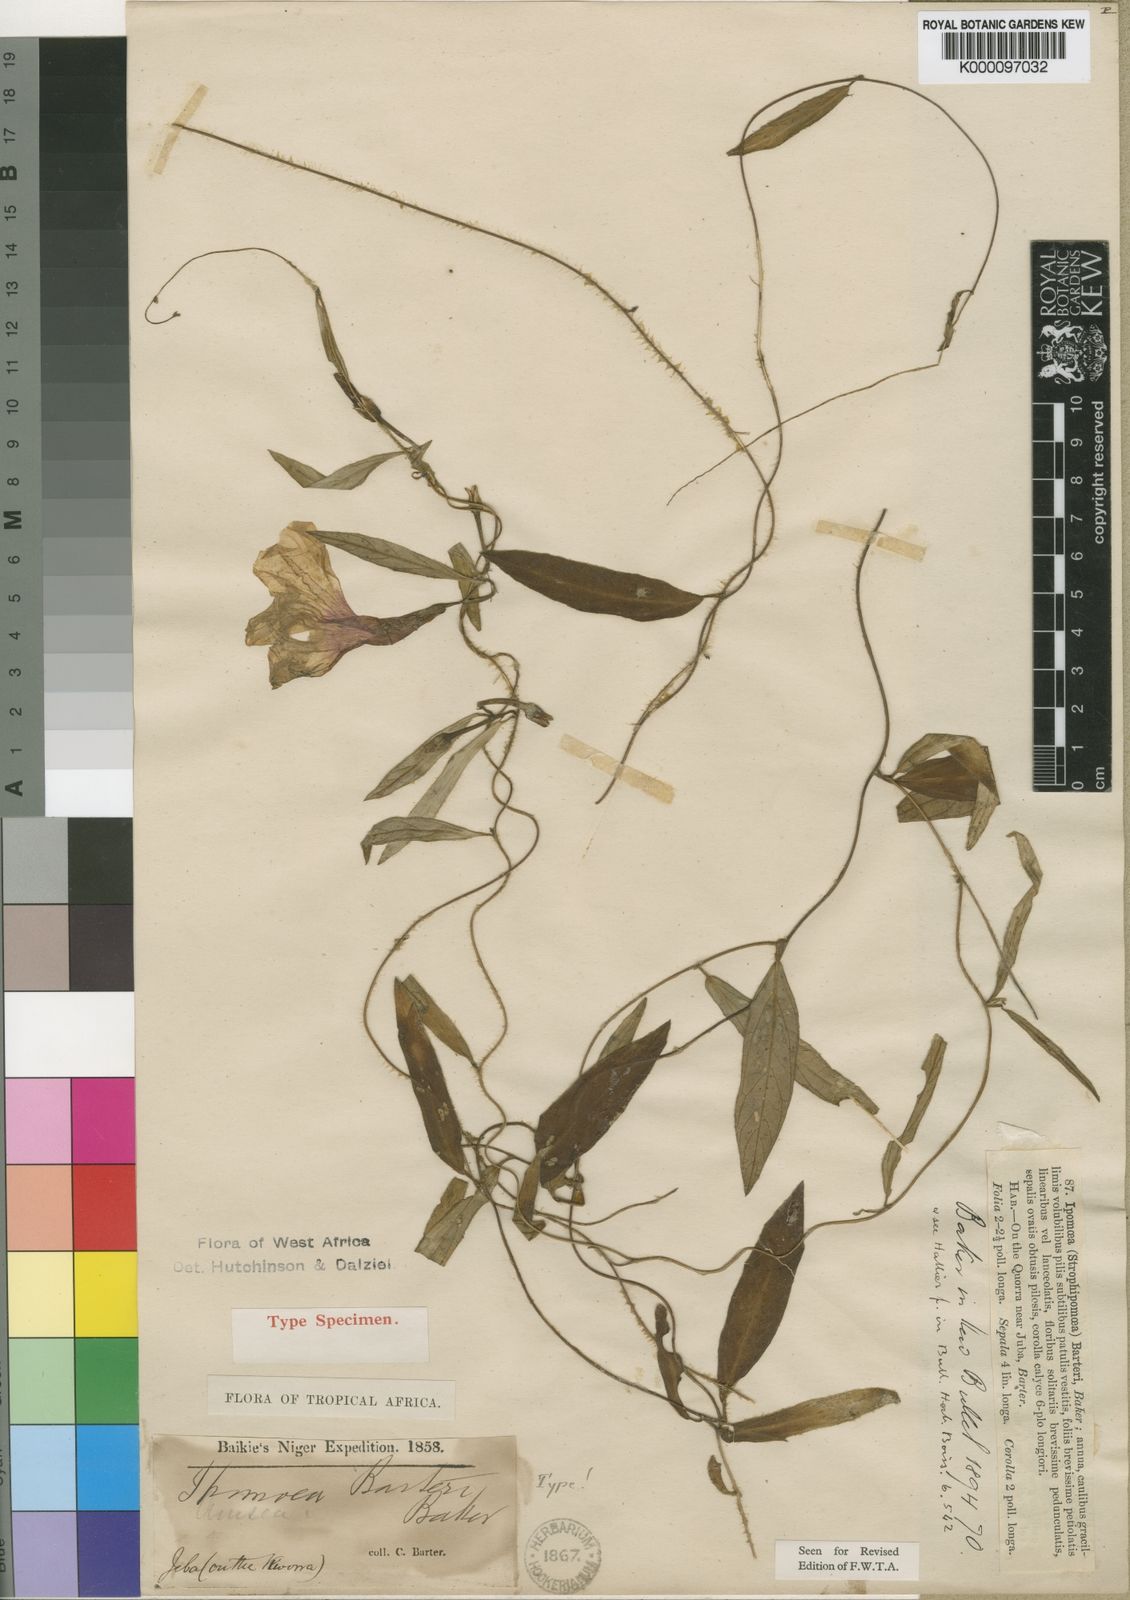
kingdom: Plantae
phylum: Tracheophyta
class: Magnoliopsida
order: Solanales
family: Convolvulaceae
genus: Ipomoea
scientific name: Ipomoea barteri
